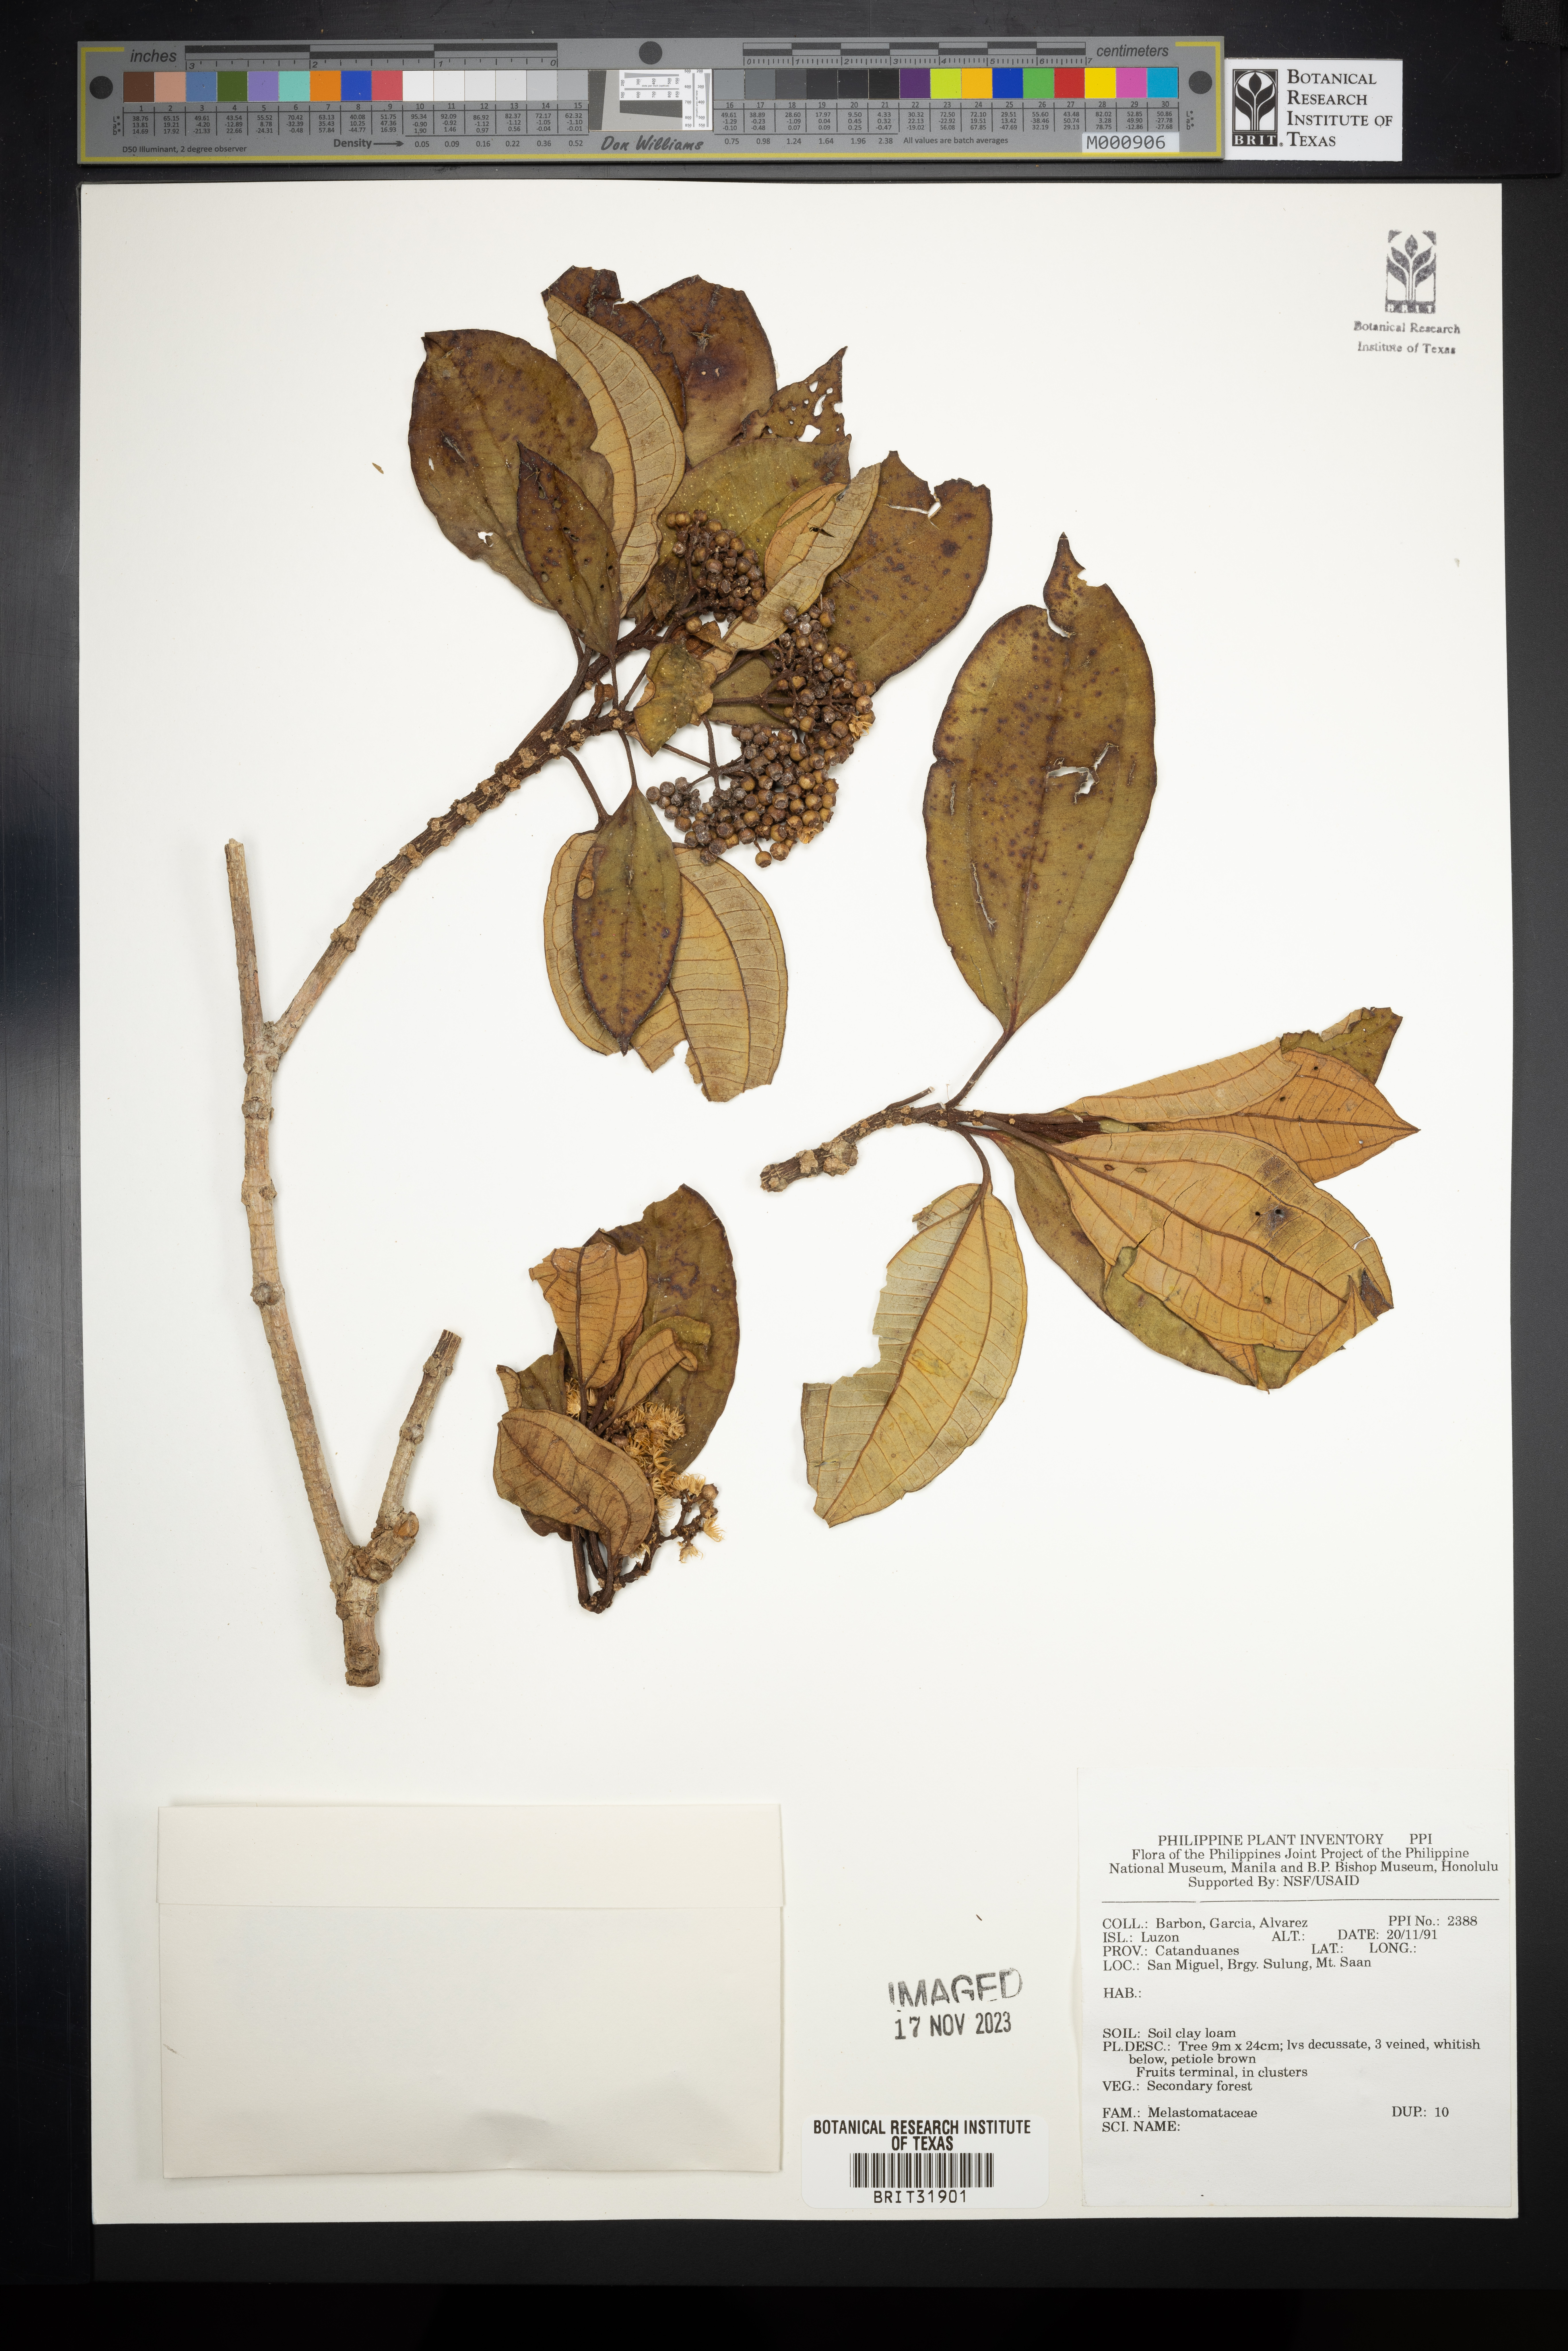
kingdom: Plantae
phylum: Tracheophyta
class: Magnoliopsida
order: Myrtales
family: Melastomataceae
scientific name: Melastomataceae
